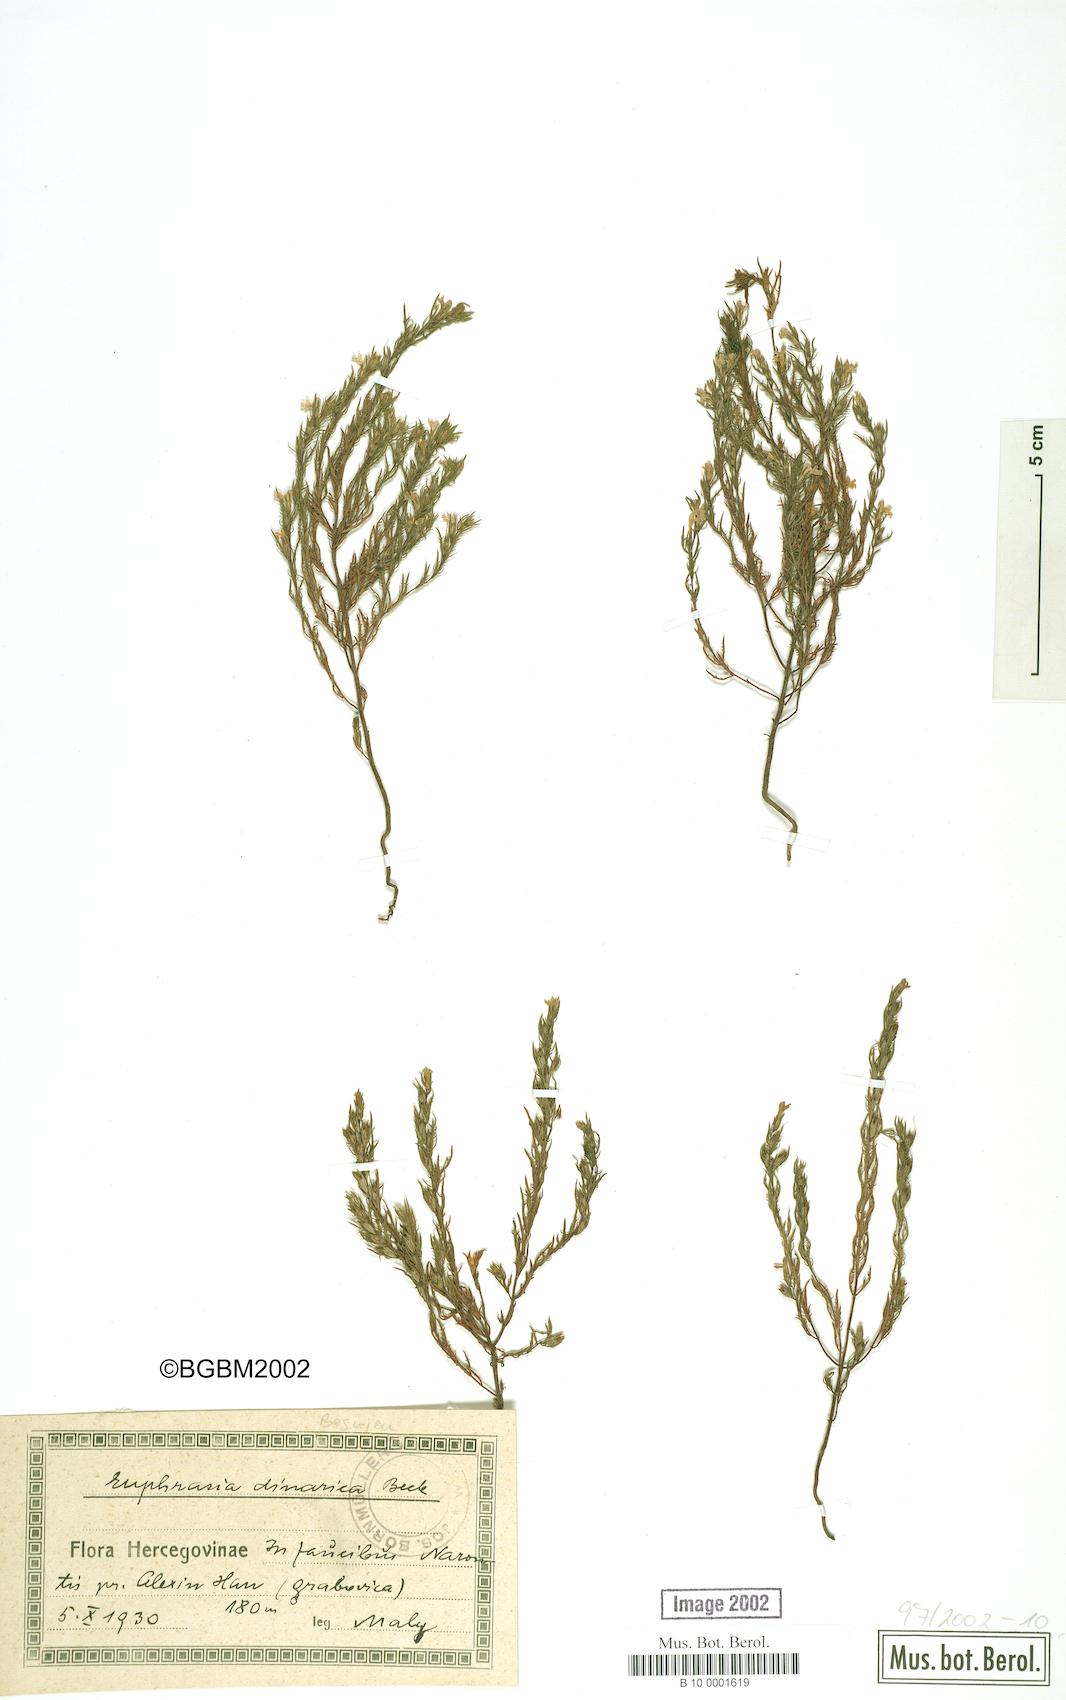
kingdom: Plantae
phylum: Tracheophyta
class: Magnoliopsida
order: Lamiales
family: Orobanchaceae
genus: Euphrasia
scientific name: Euphrasia dinarica
